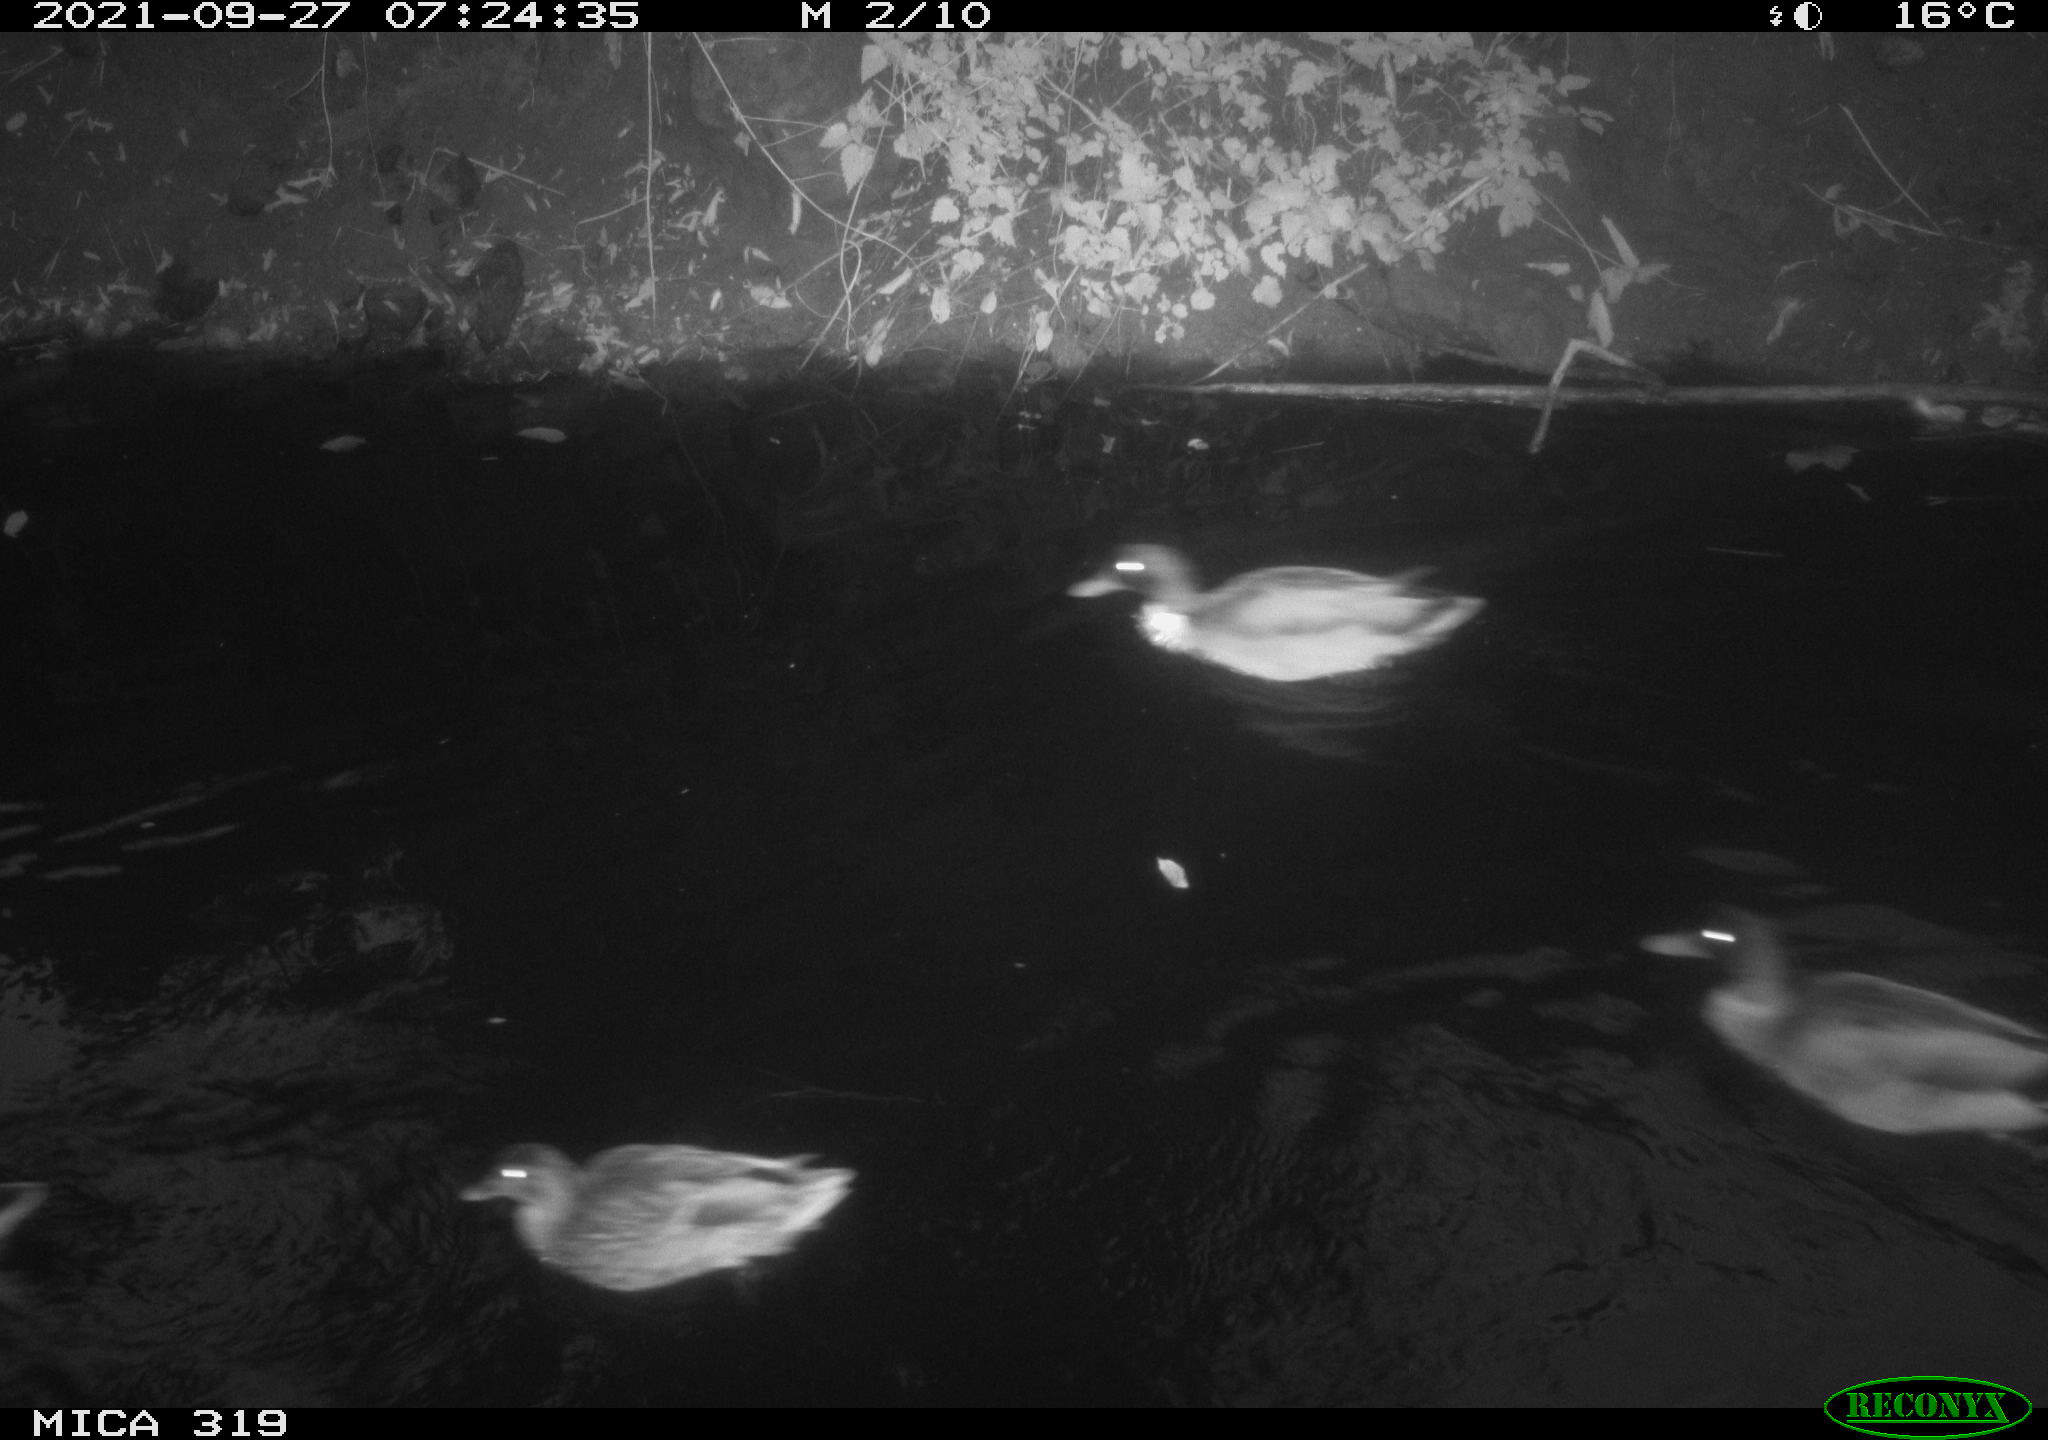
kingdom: Animalia
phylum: Chordata
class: Aves
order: Anseriformes
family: Anatidae
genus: Anas
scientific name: Anas platyrhynchos
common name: Mallard
